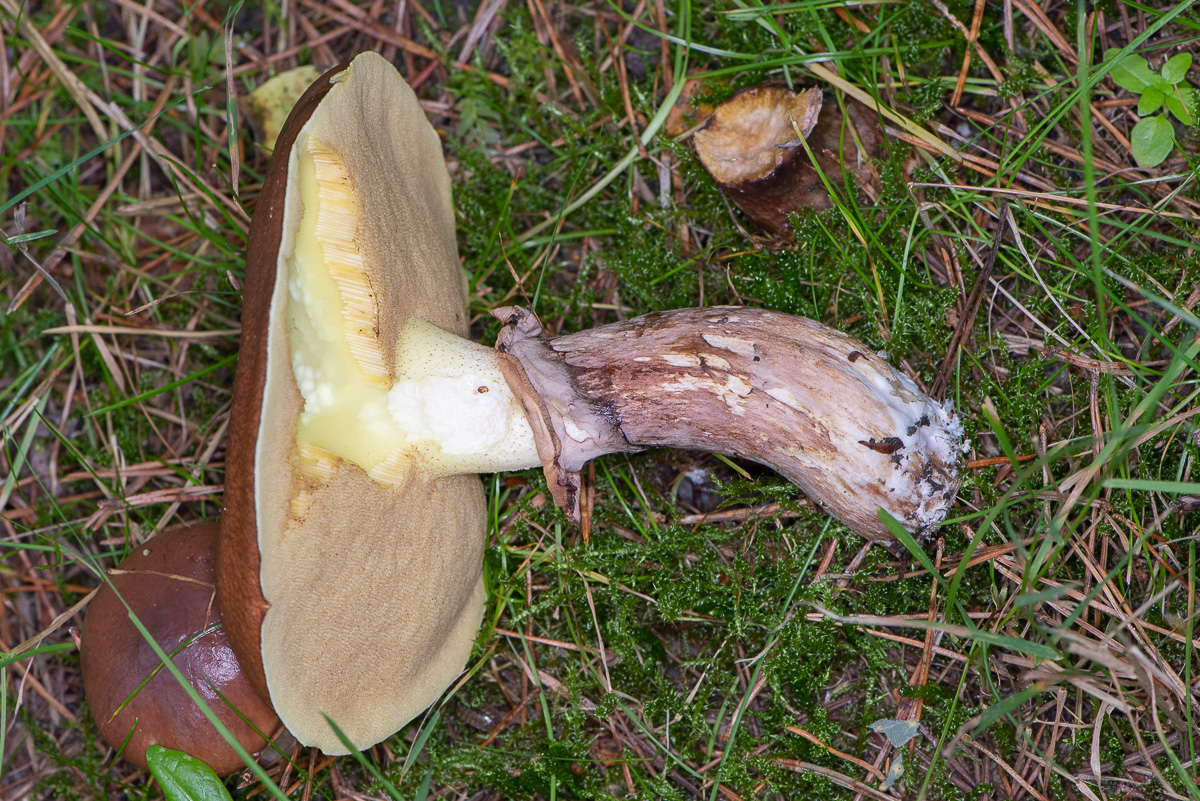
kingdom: Fungi
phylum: Basidiomycota
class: Agaricomycetes
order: Boletales
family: Suillaceae
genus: Suillus
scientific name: Suillus luteus
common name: brungul slimrørhat
